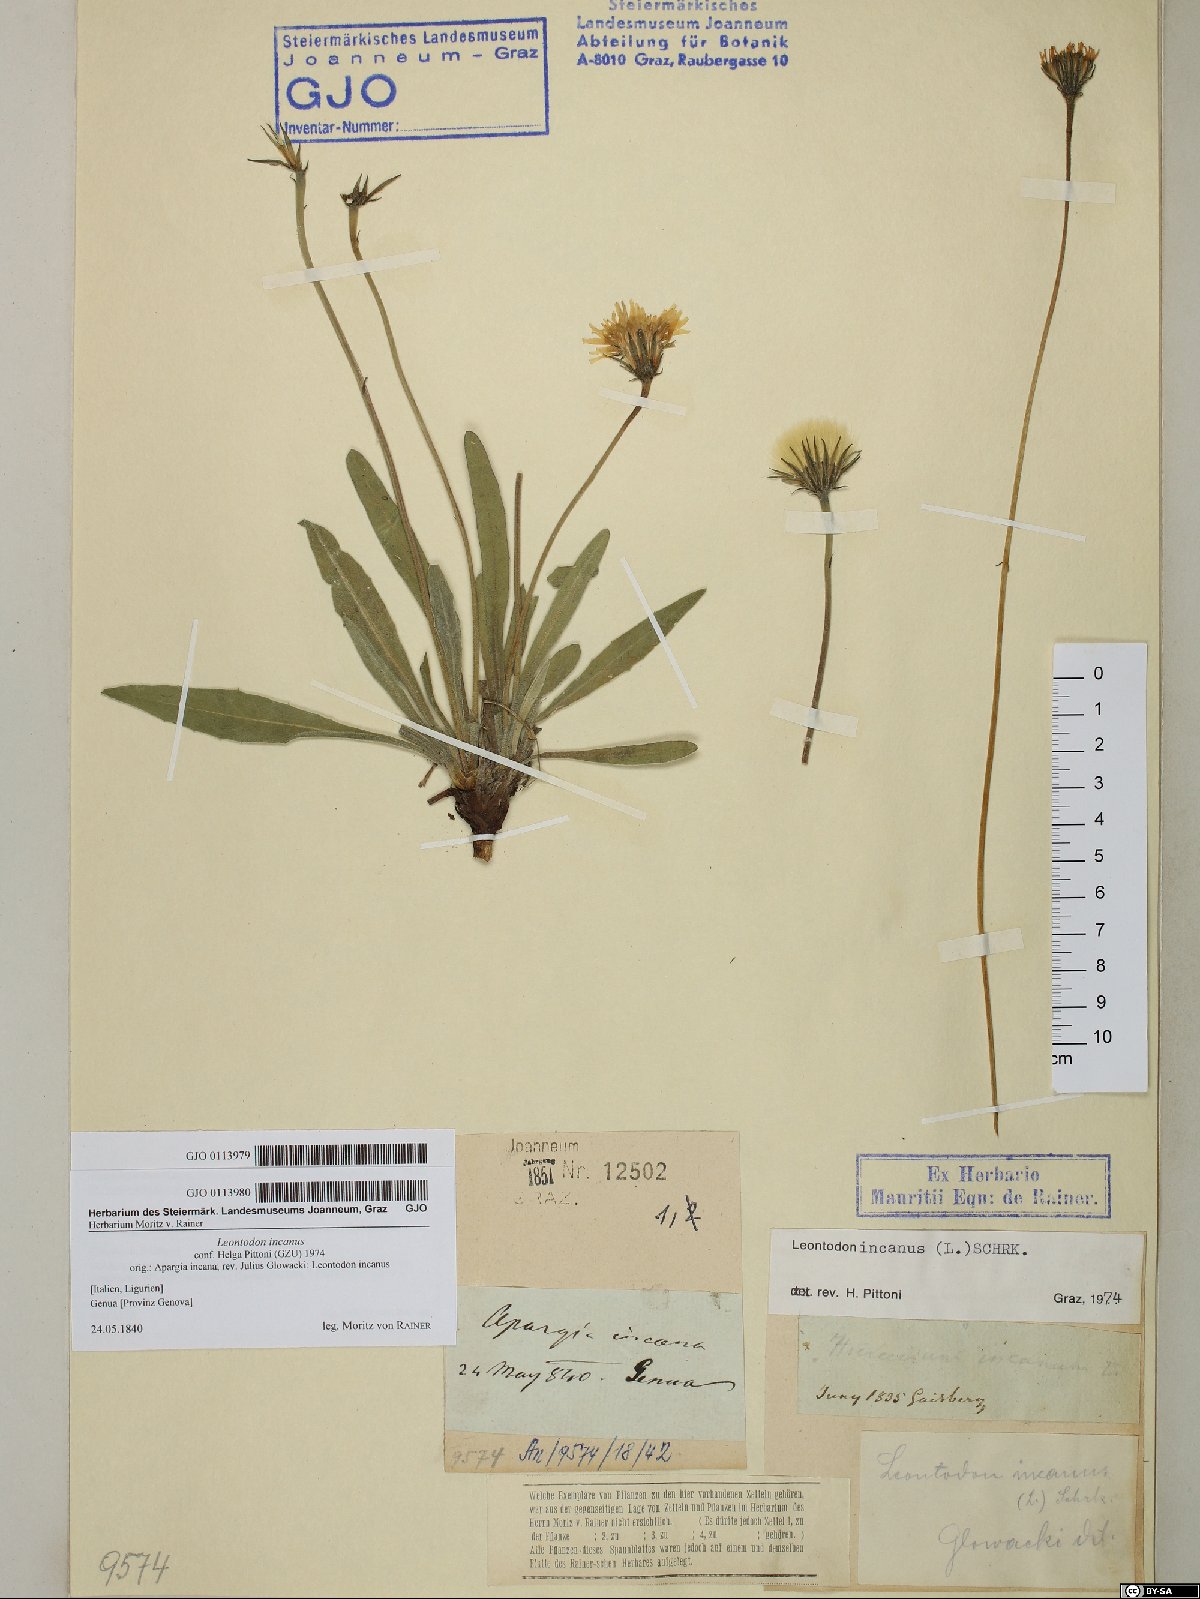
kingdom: Plantae
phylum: Tracheophyta
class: Magnoliopsida
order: Asterales
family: Asteraceae
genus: Leontodon
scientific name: Leontodon incanus
